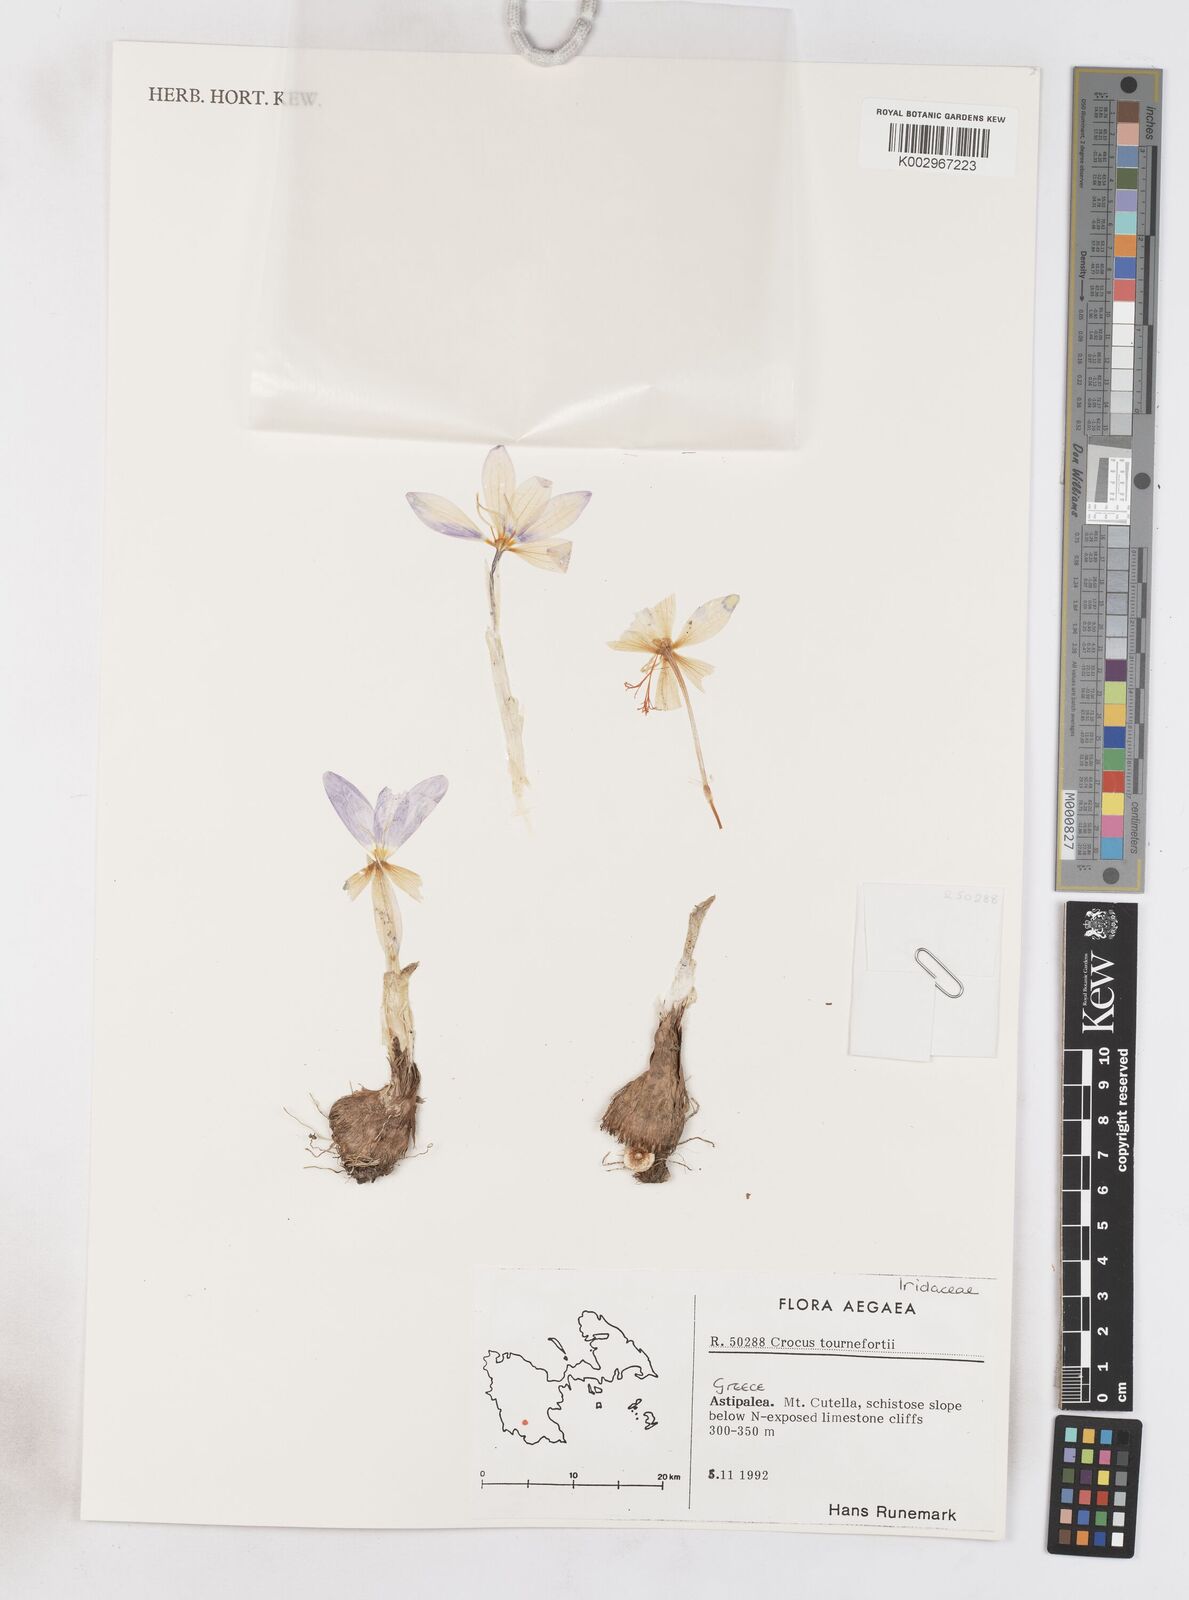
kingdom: Plantae
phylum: Tracheophyta
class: Liliopsida
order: Asparagales
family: Iridaceae
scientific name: Iridaceae
